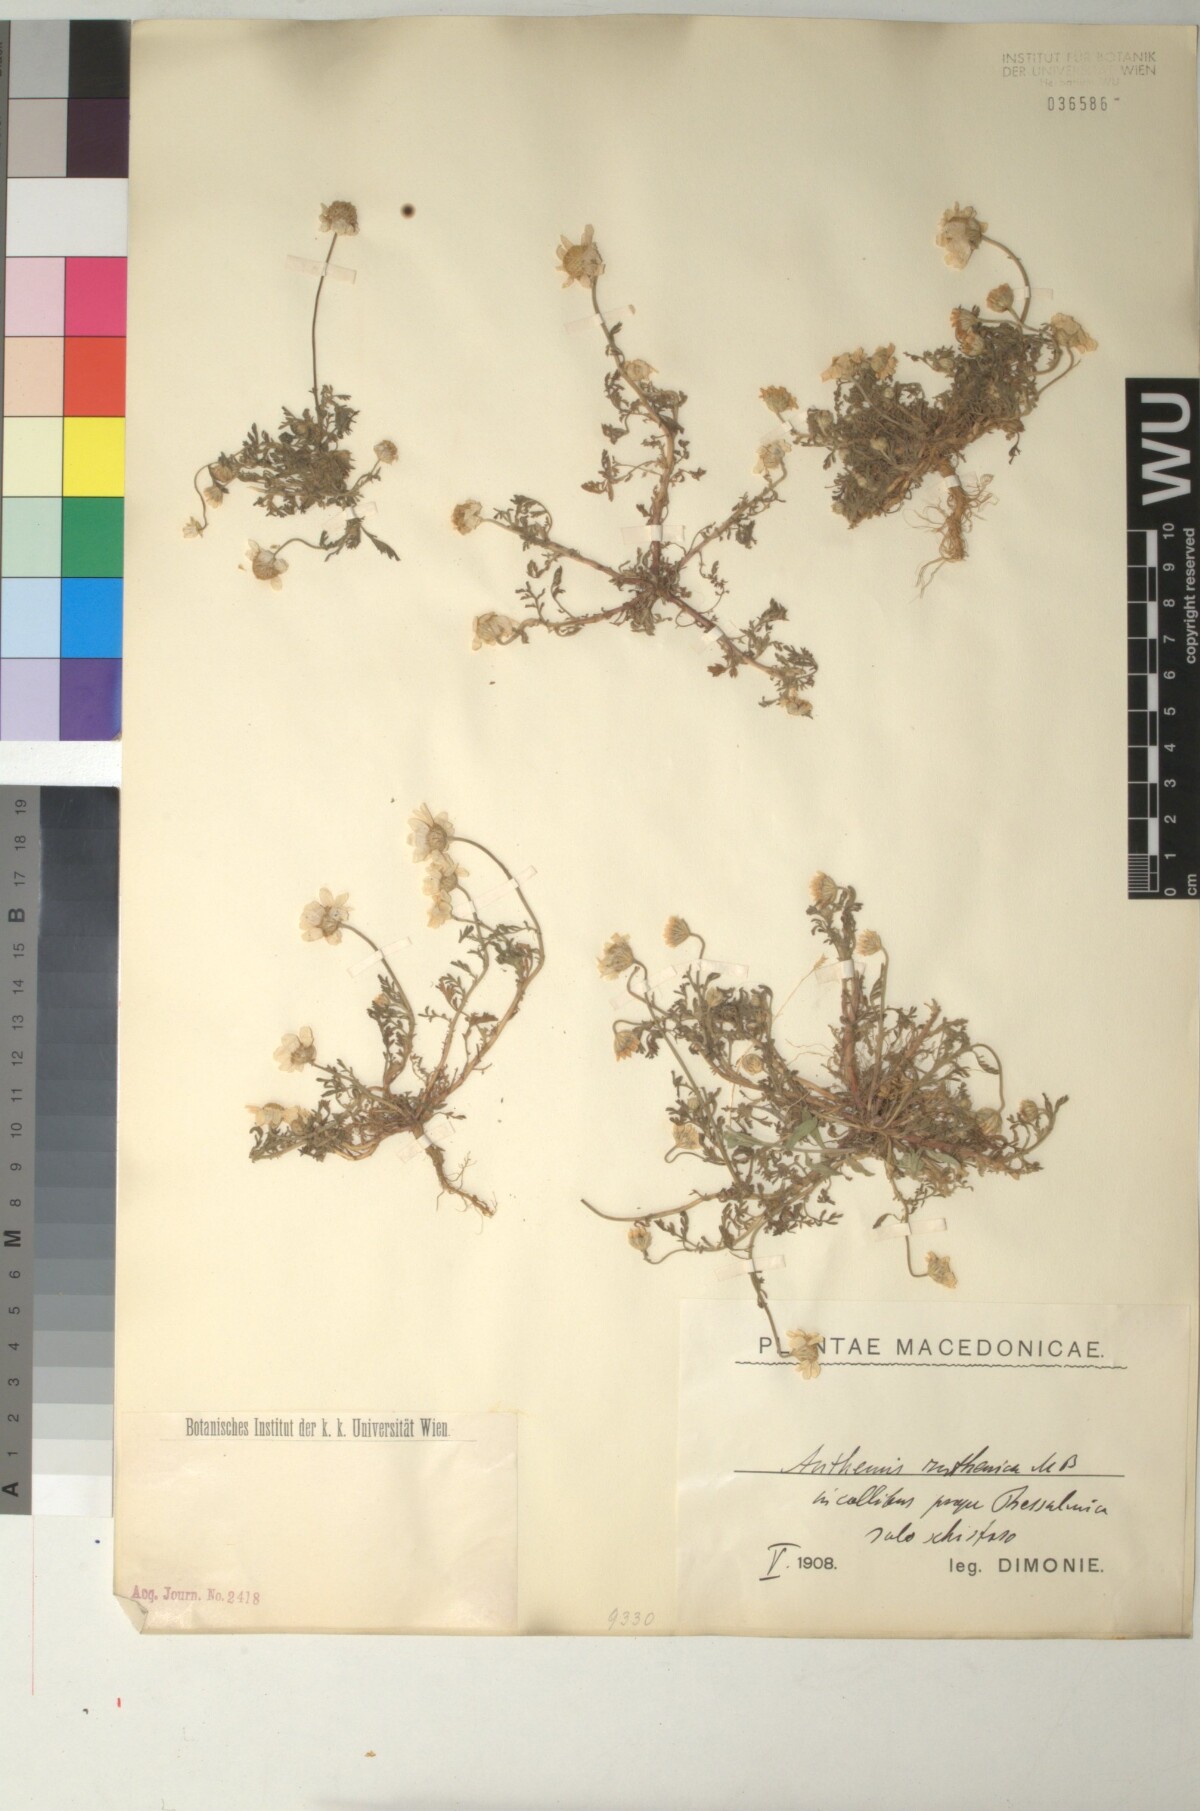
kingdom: Plantae
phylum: Tracheophyta
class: Magnoliopsida
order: Asterales
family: Asteraceae
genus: Anthemis
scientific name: Anthemis ruthenica
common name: Eastern chamomile
